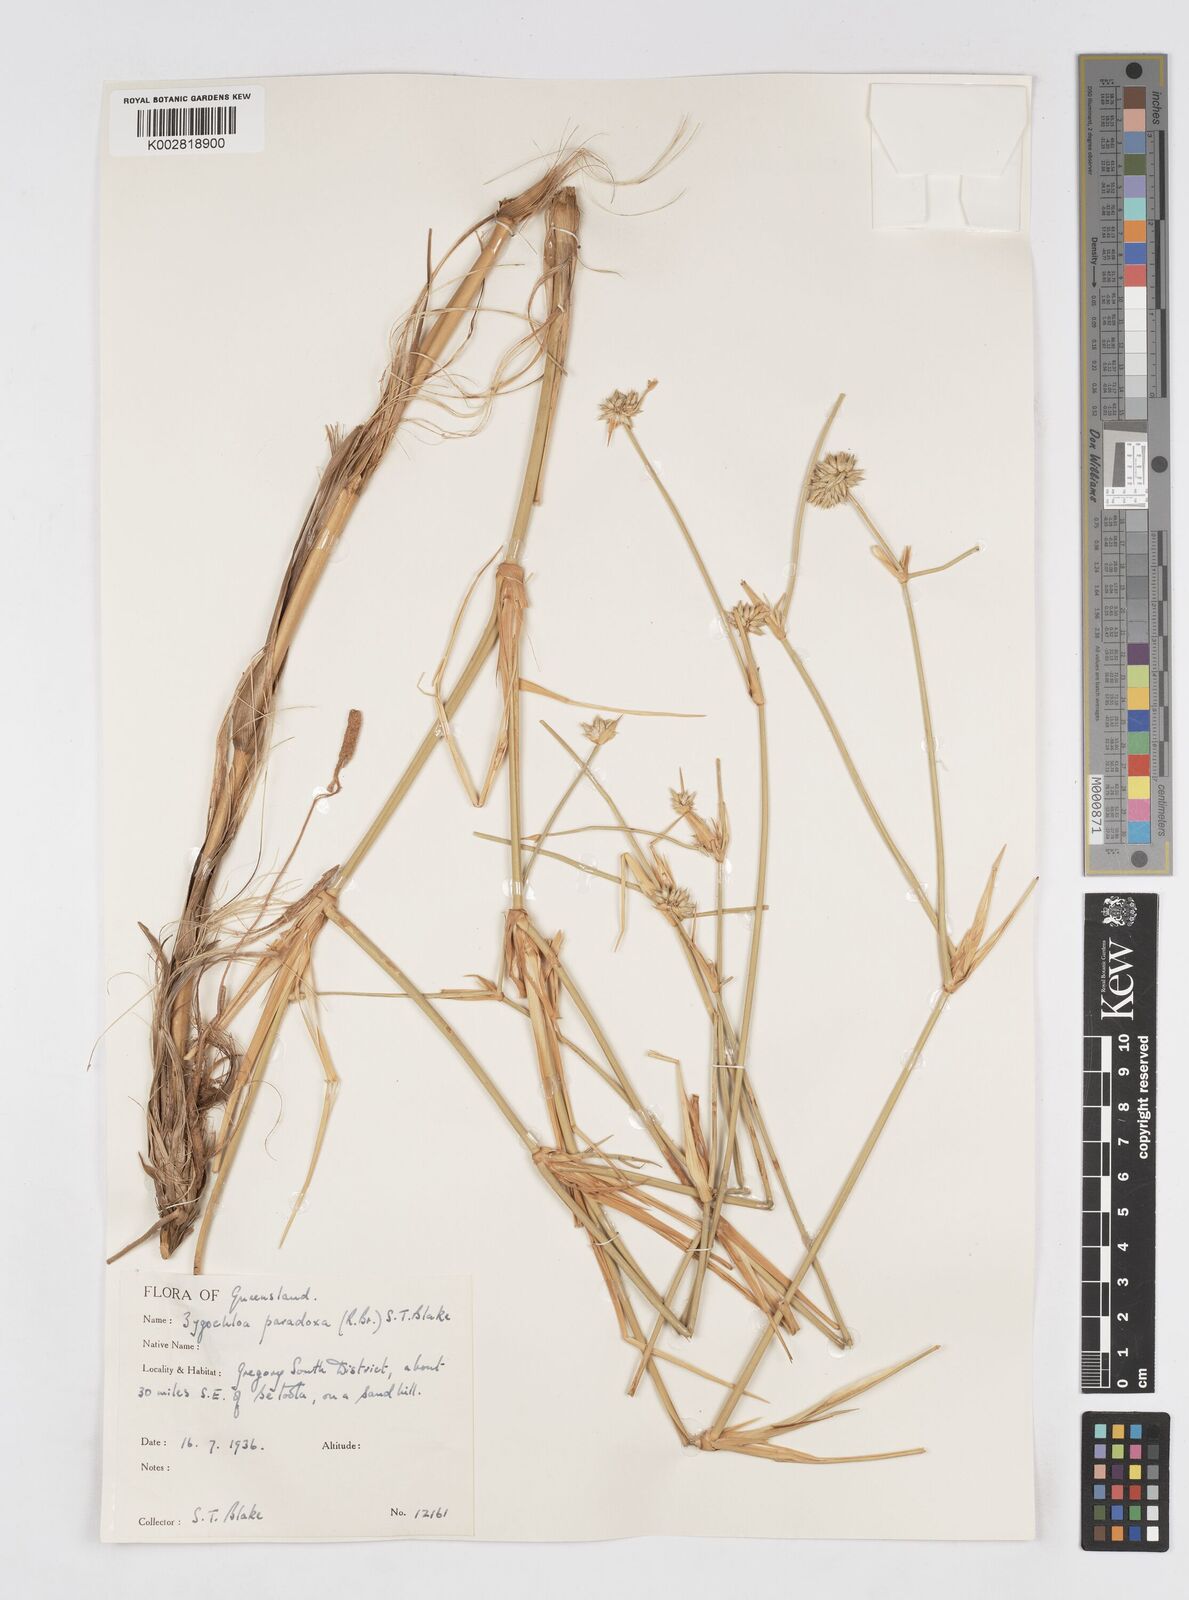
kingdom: Plantae
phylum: Tracheophyta
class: Liliopsida
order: Poales
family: Poaceae
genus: Zygochloa
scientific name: Zygochloa paradoxa
